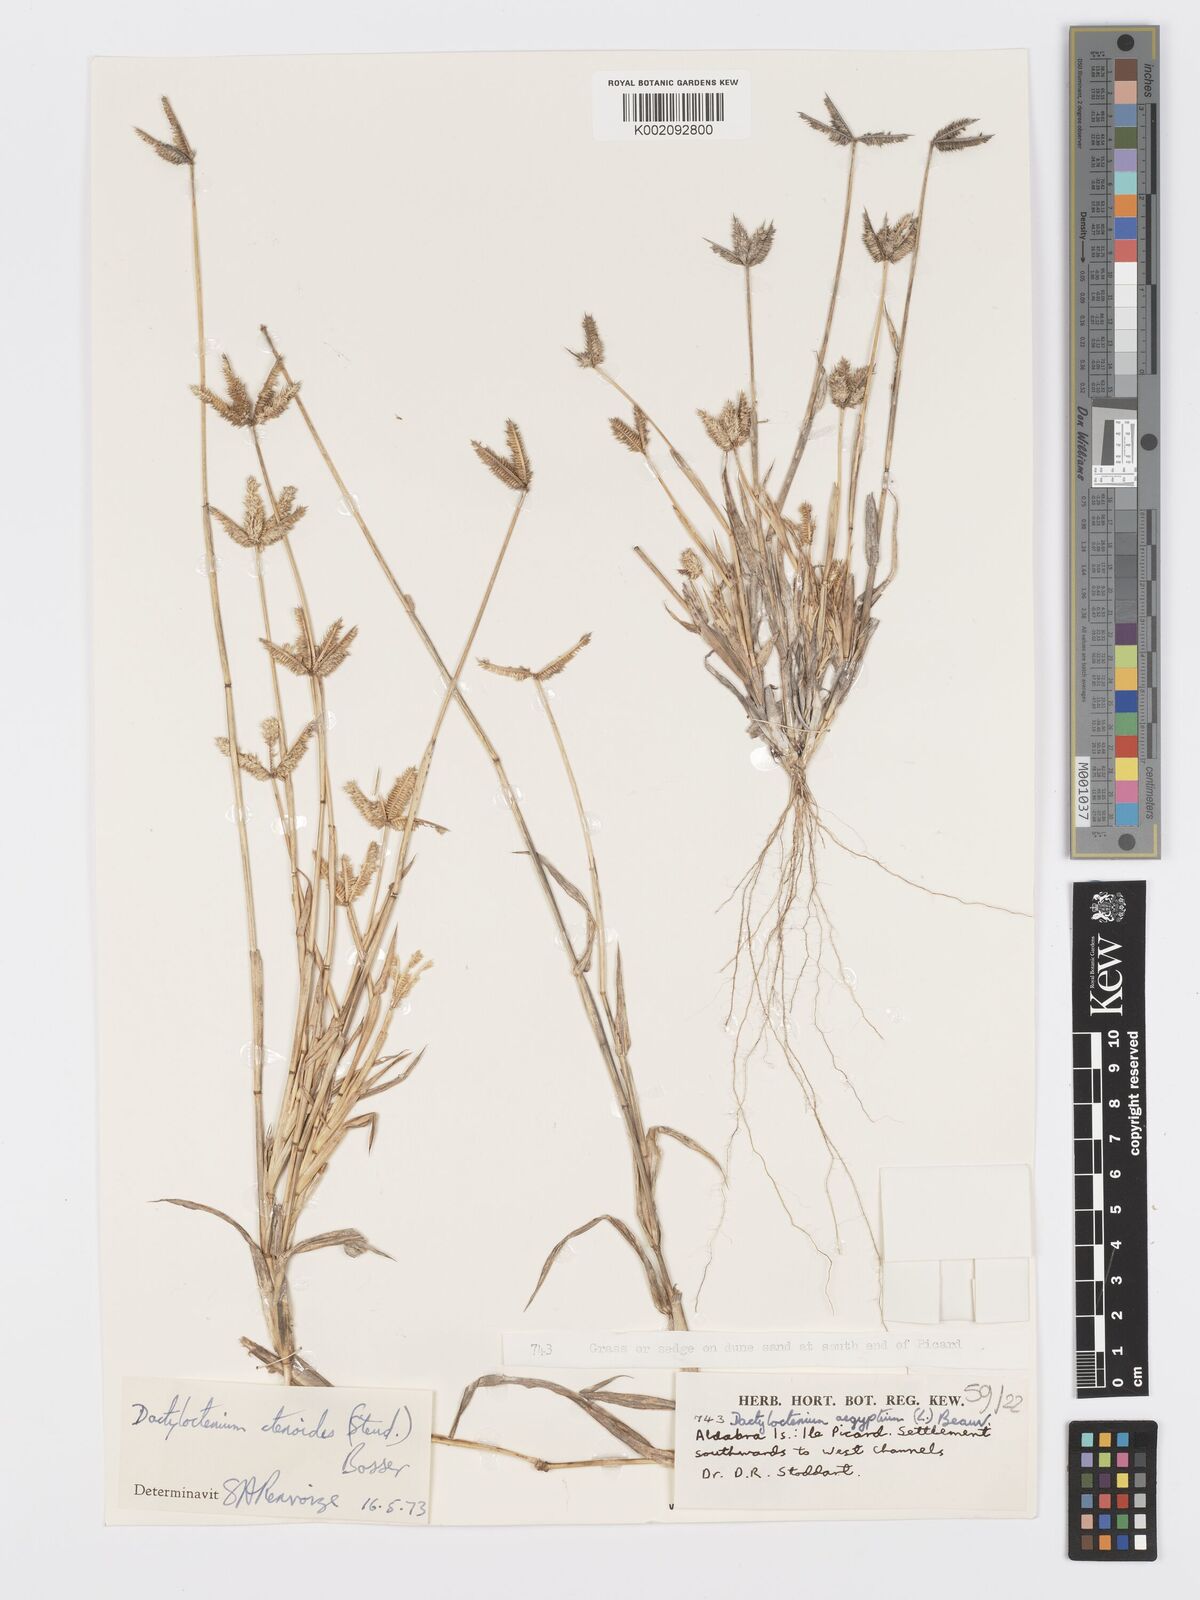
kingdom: Plantae
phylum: Tracheophyta
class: Liliopsida
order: Poales
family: Poaceae
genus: Dactyloctenium
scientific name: Dactyloctenium ctenoides
